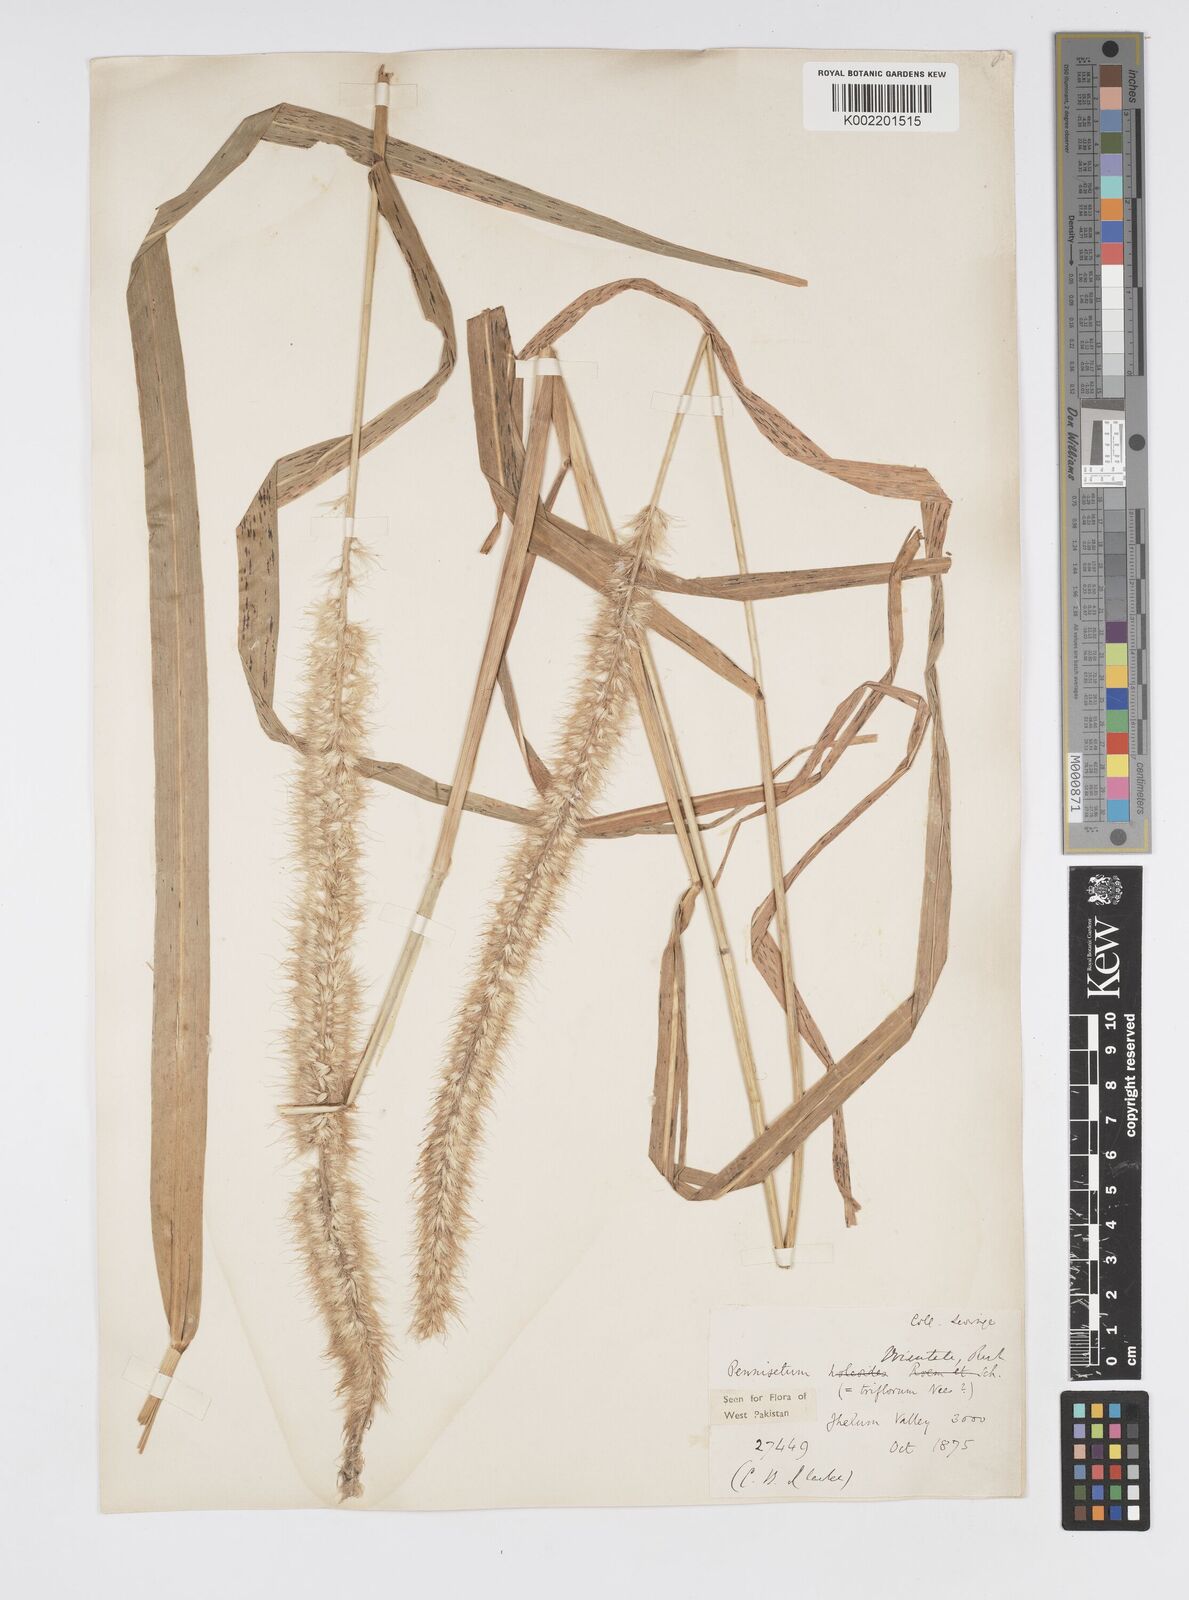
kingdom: Plantae
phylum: Tracheophyta
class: Liliopsida
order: Poales
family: Poaceae
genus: Cenchrus
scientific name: Cenchrus orientalis
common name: Oriental fountain grass
